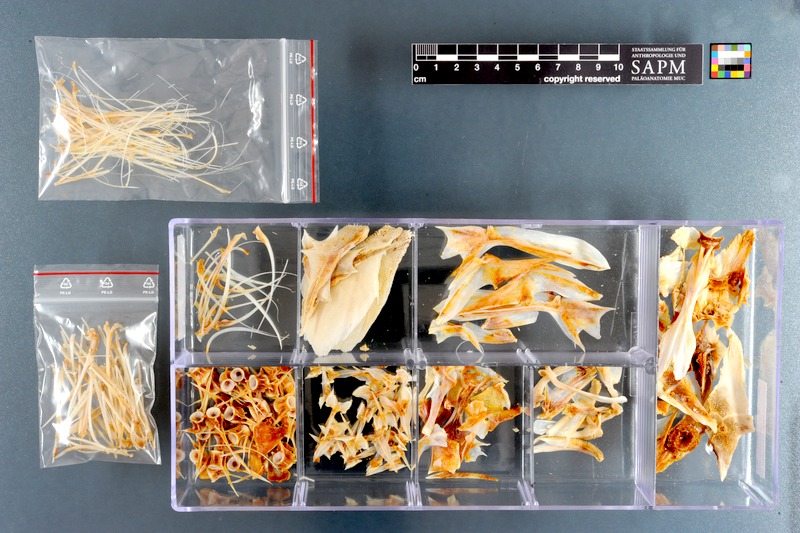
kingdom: Animalia
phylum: Chordata
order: Scorpaeniformes
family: Triglidae
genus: Chelidonichthys
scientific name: Chelidonichthys capensis
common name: Cape gurnard
